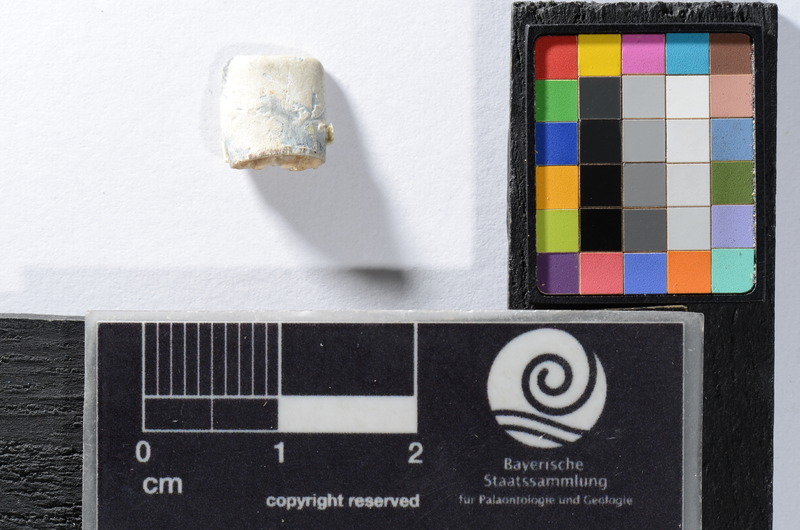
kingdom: Animalia
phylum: Chordata
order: Cypriniformes
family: Cyprinidae
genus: Capitodus
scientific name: Capitodus
